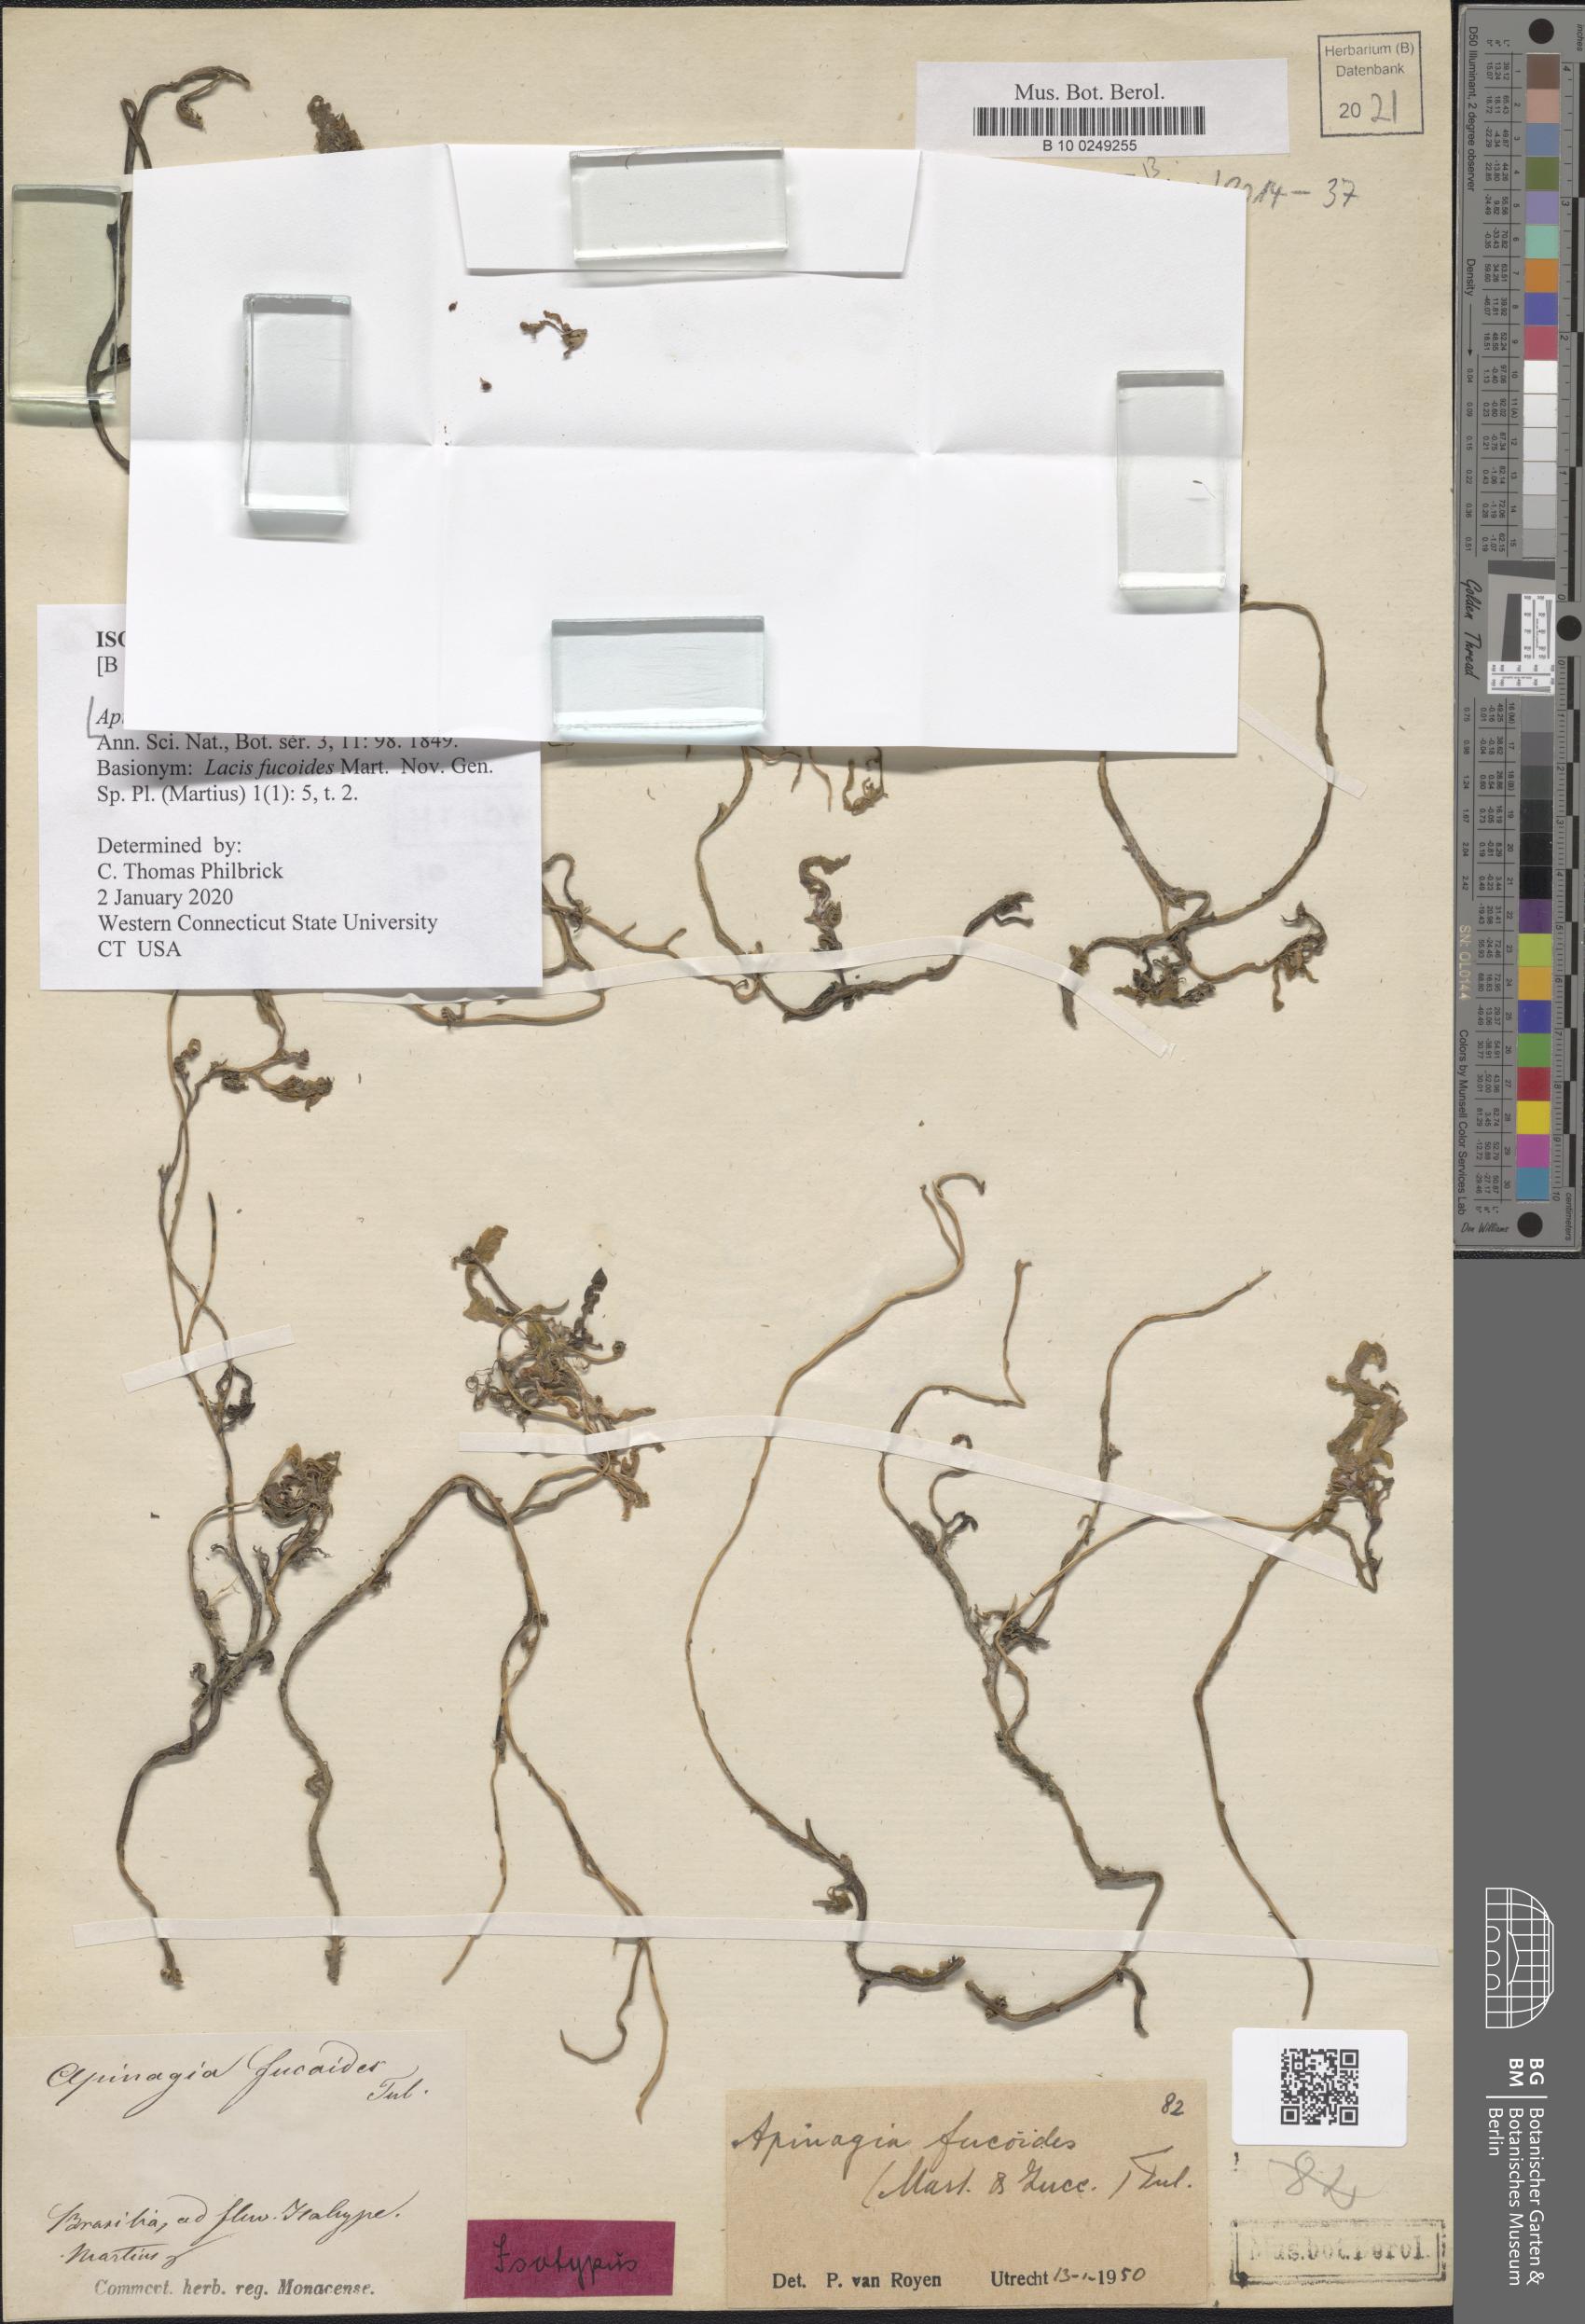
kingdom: Plantae
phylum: Tracheophyta
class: Magnoliopsida
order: Malpighiales
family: Podostemaceae
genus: Apinagia
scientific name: Apinagia fucoides
